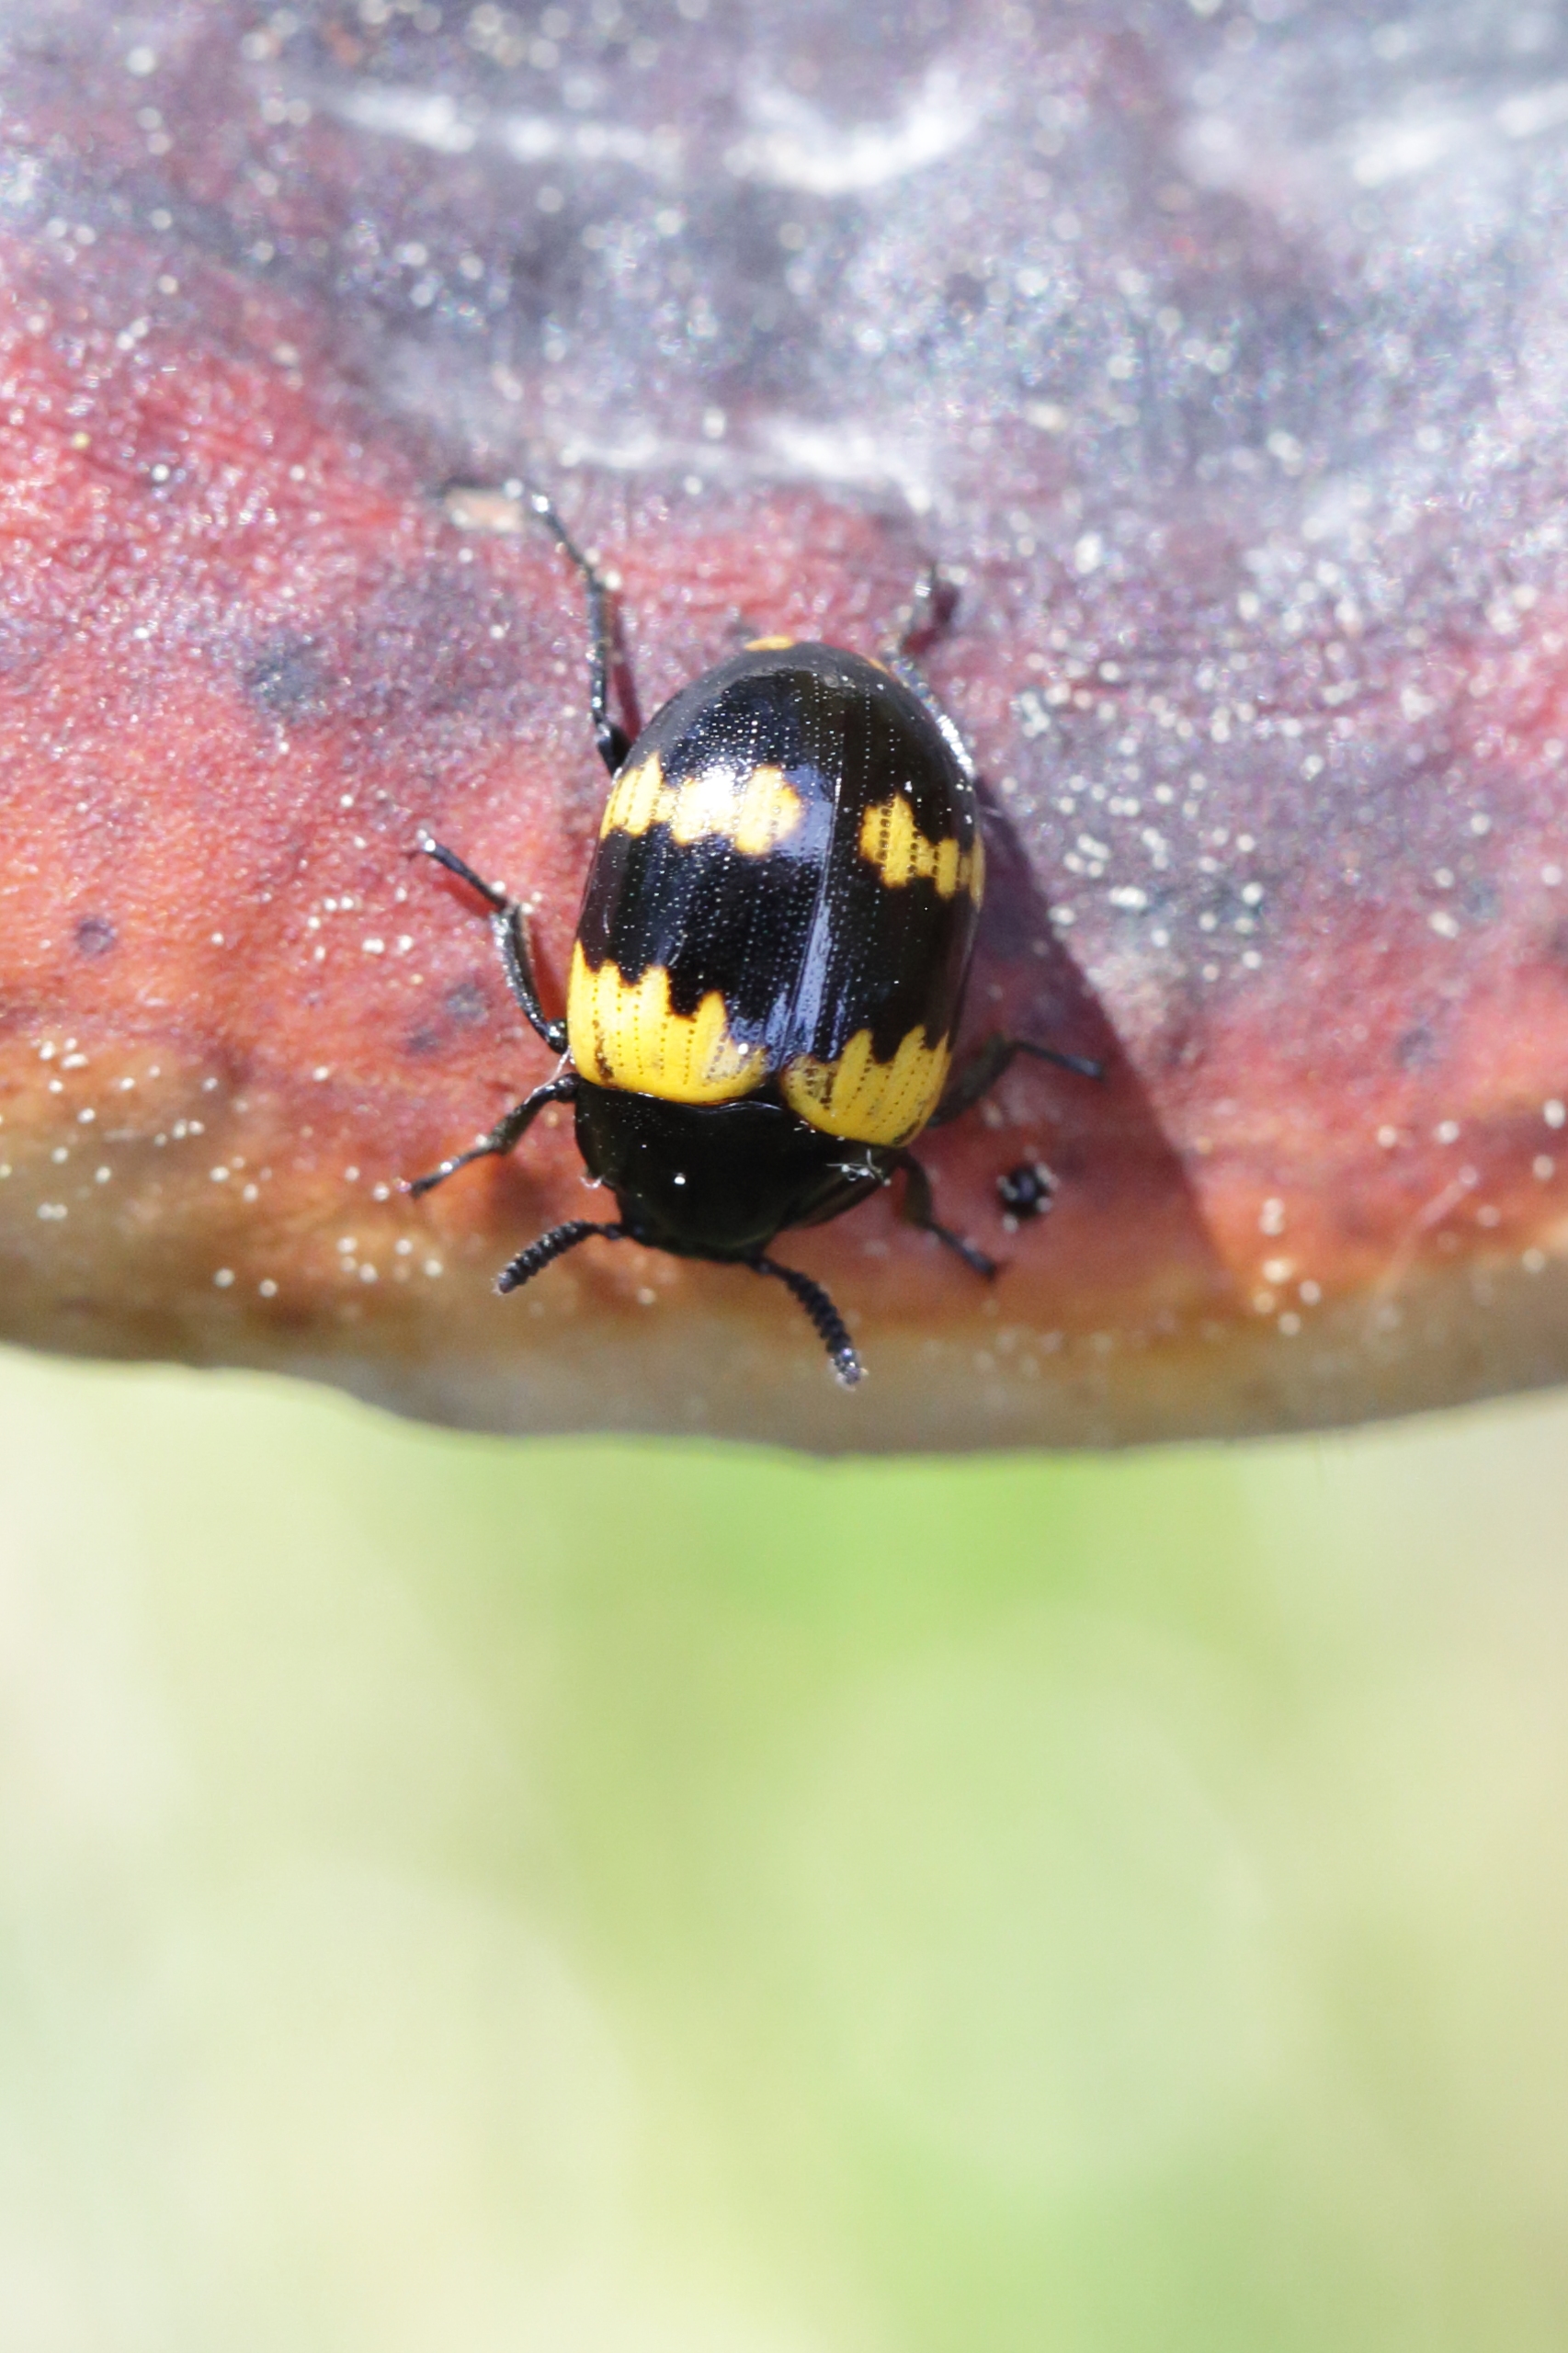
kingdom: Animalia
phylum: Arthropoda
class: Insecta
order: Coleoptera
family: Tenebrionidae
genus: Diaperis
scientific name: Diaperis boleti
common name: Tigerskyggebille
